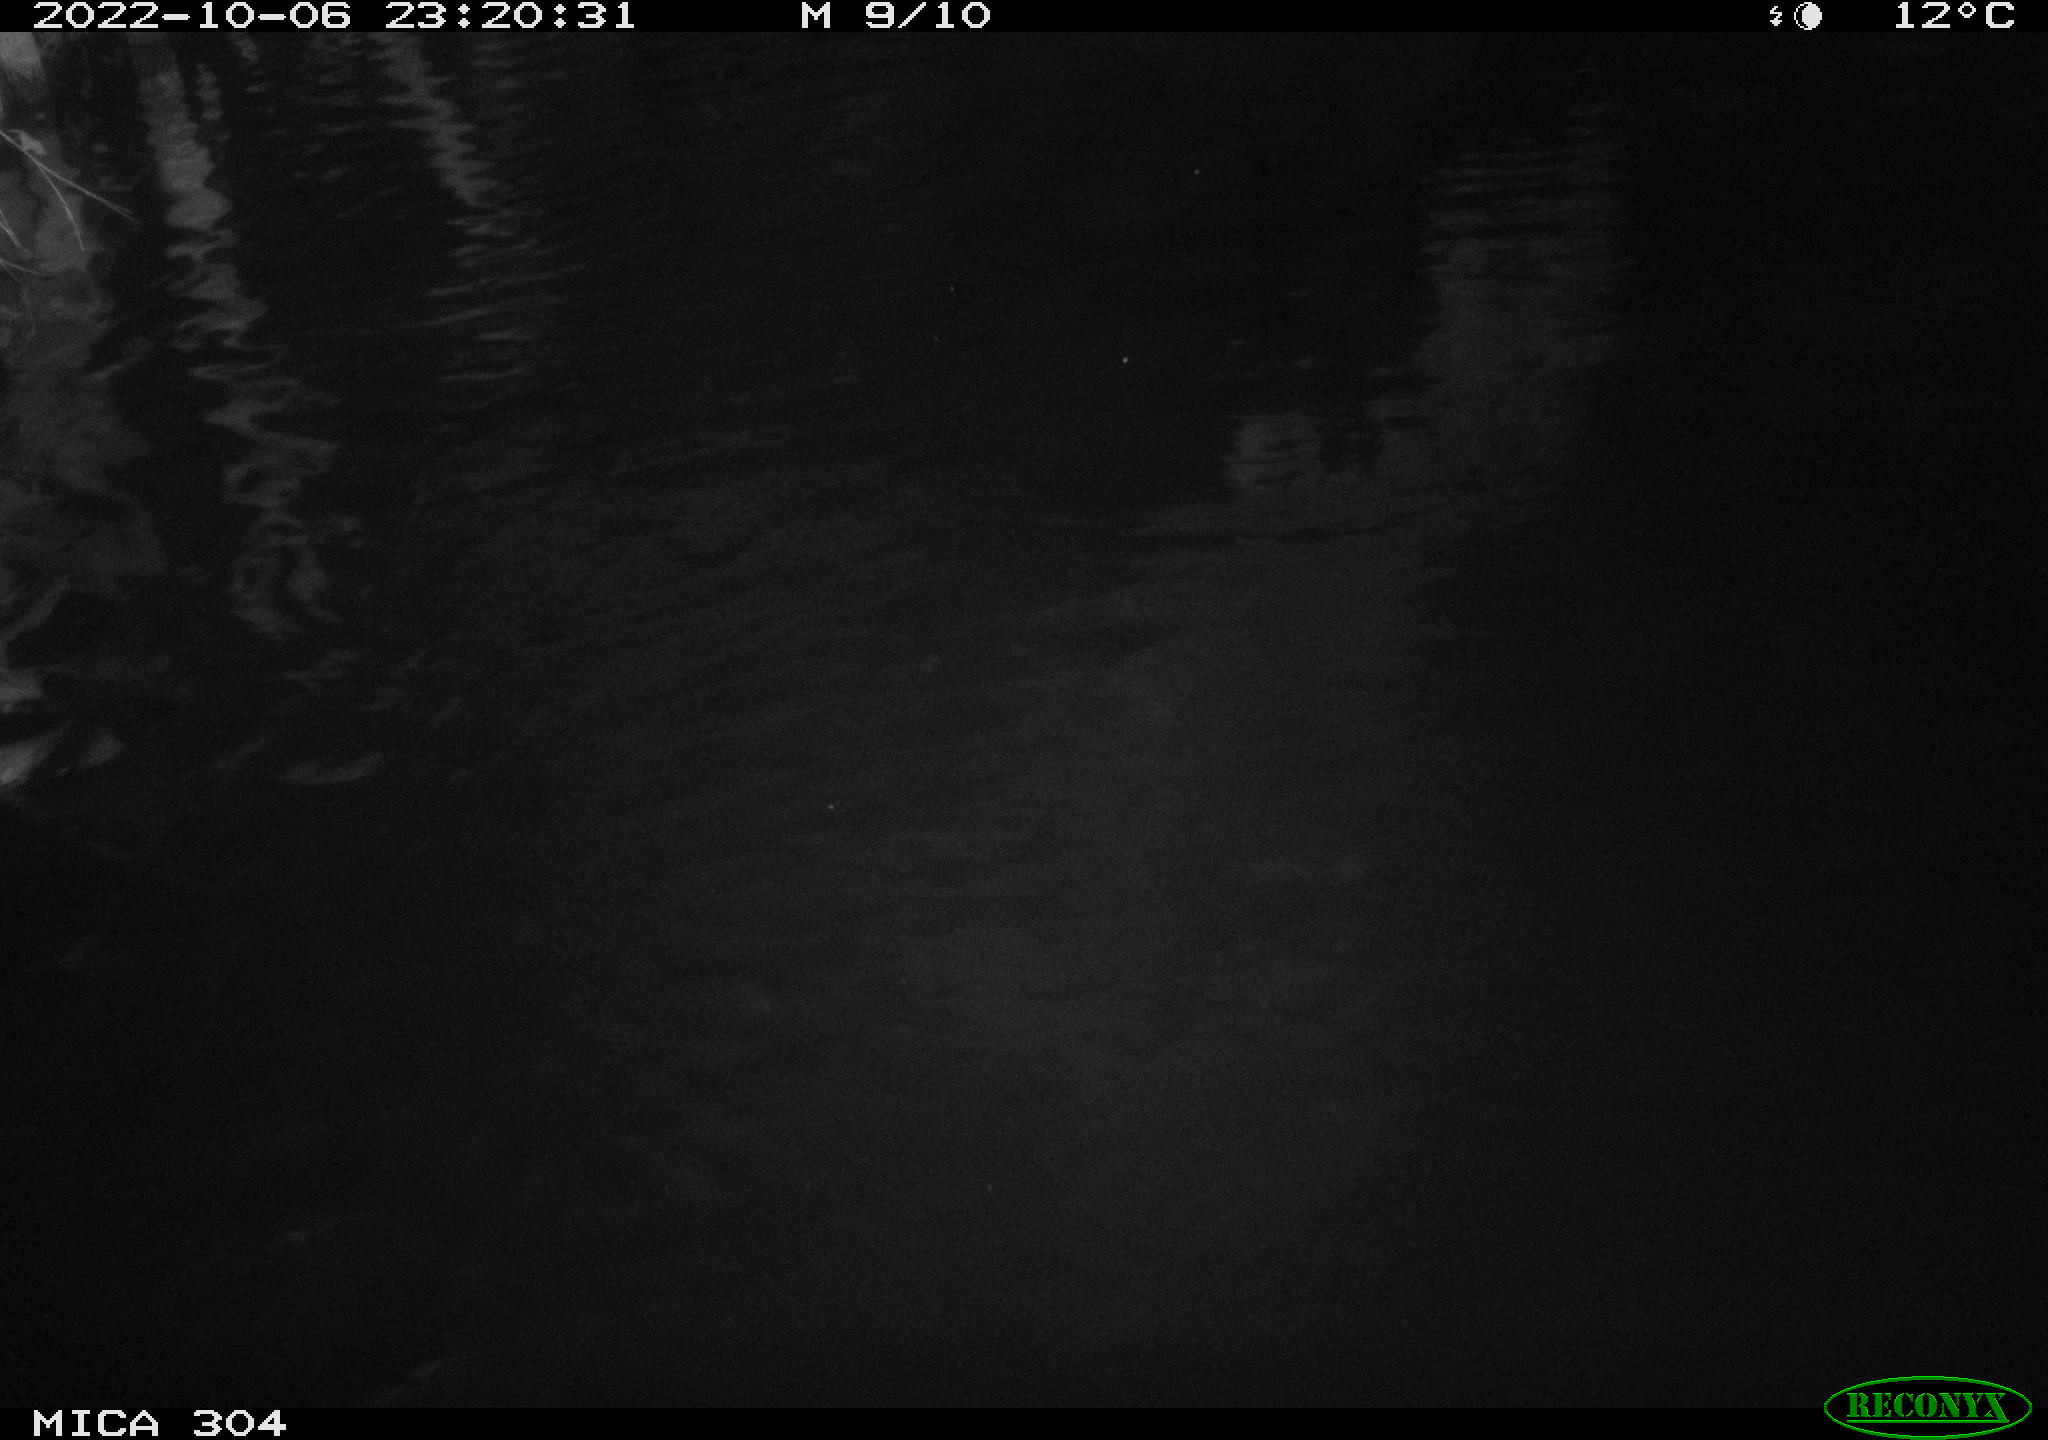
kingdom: Animalia
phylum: Chordata
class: Mammalia
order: Rodentia
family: Cricetidae
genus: Ondatra
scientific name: Ondatra zibethicus
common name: Muskrat
